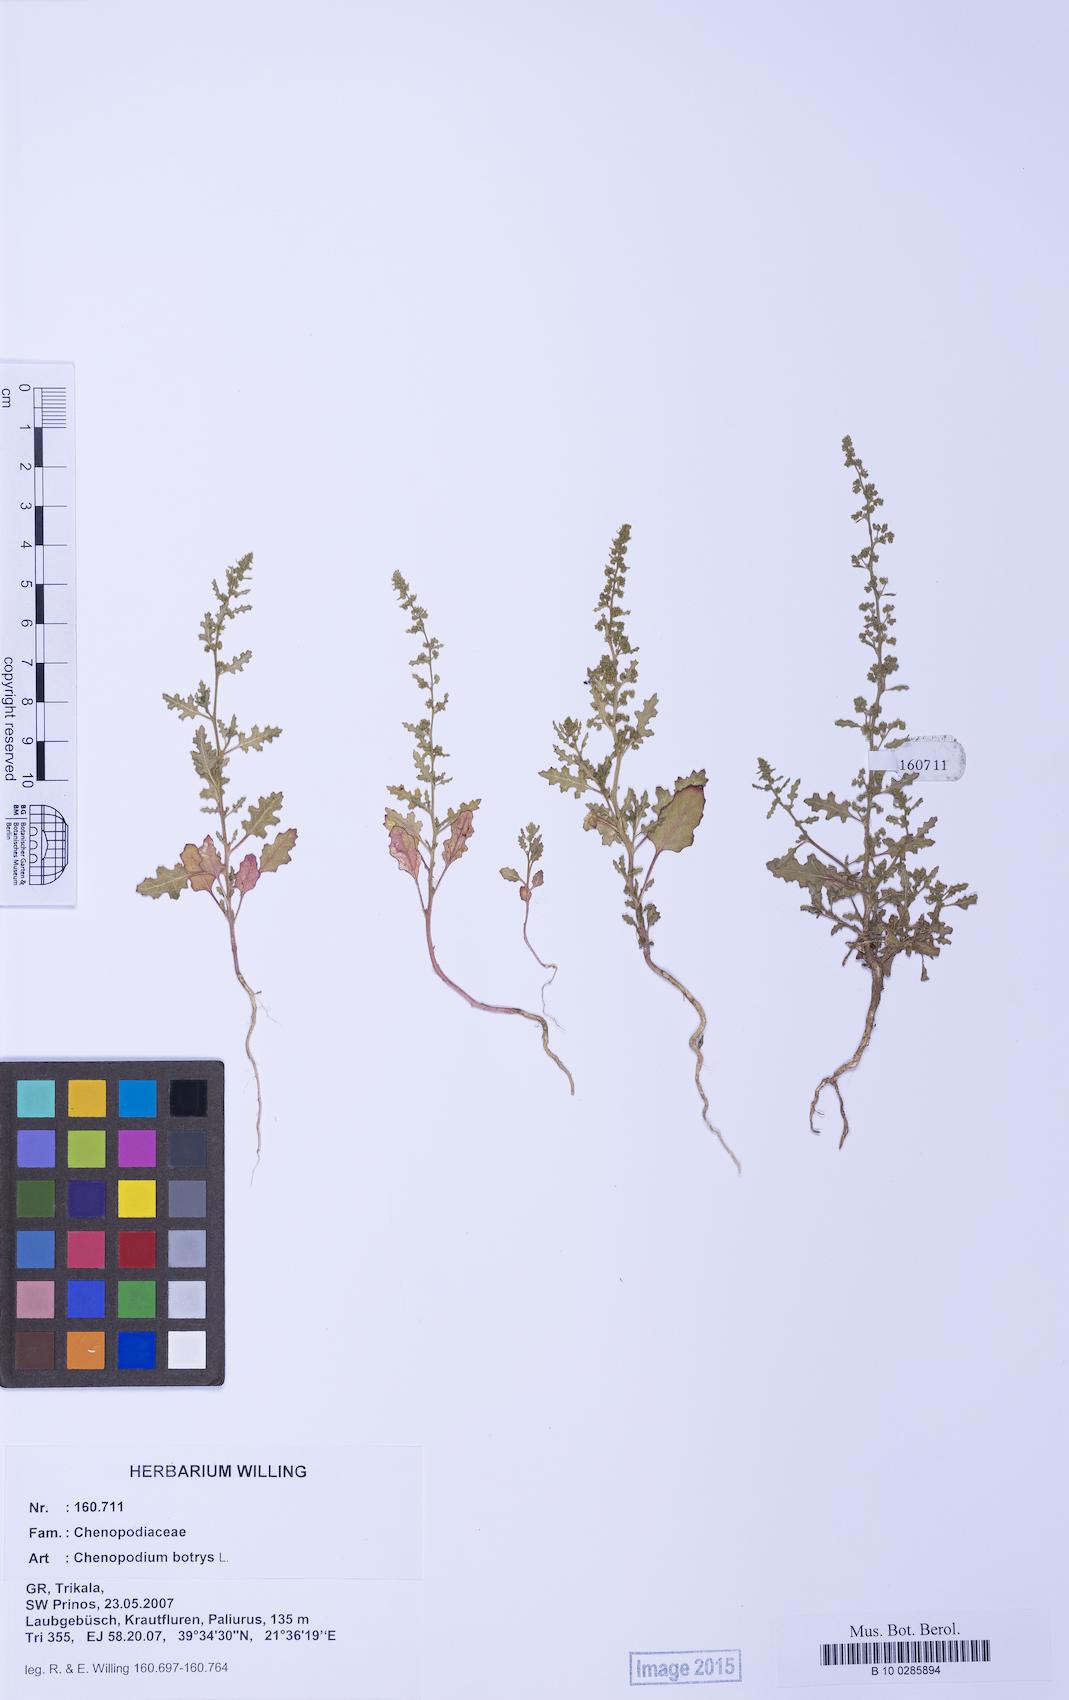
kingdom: Plantae
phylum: Tracheophyta
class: Magnoliopsida
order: Caryophyllales
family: Amaranthaceae
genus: Dysphania
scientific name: Dysphania botrys
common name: Feather-geranium
